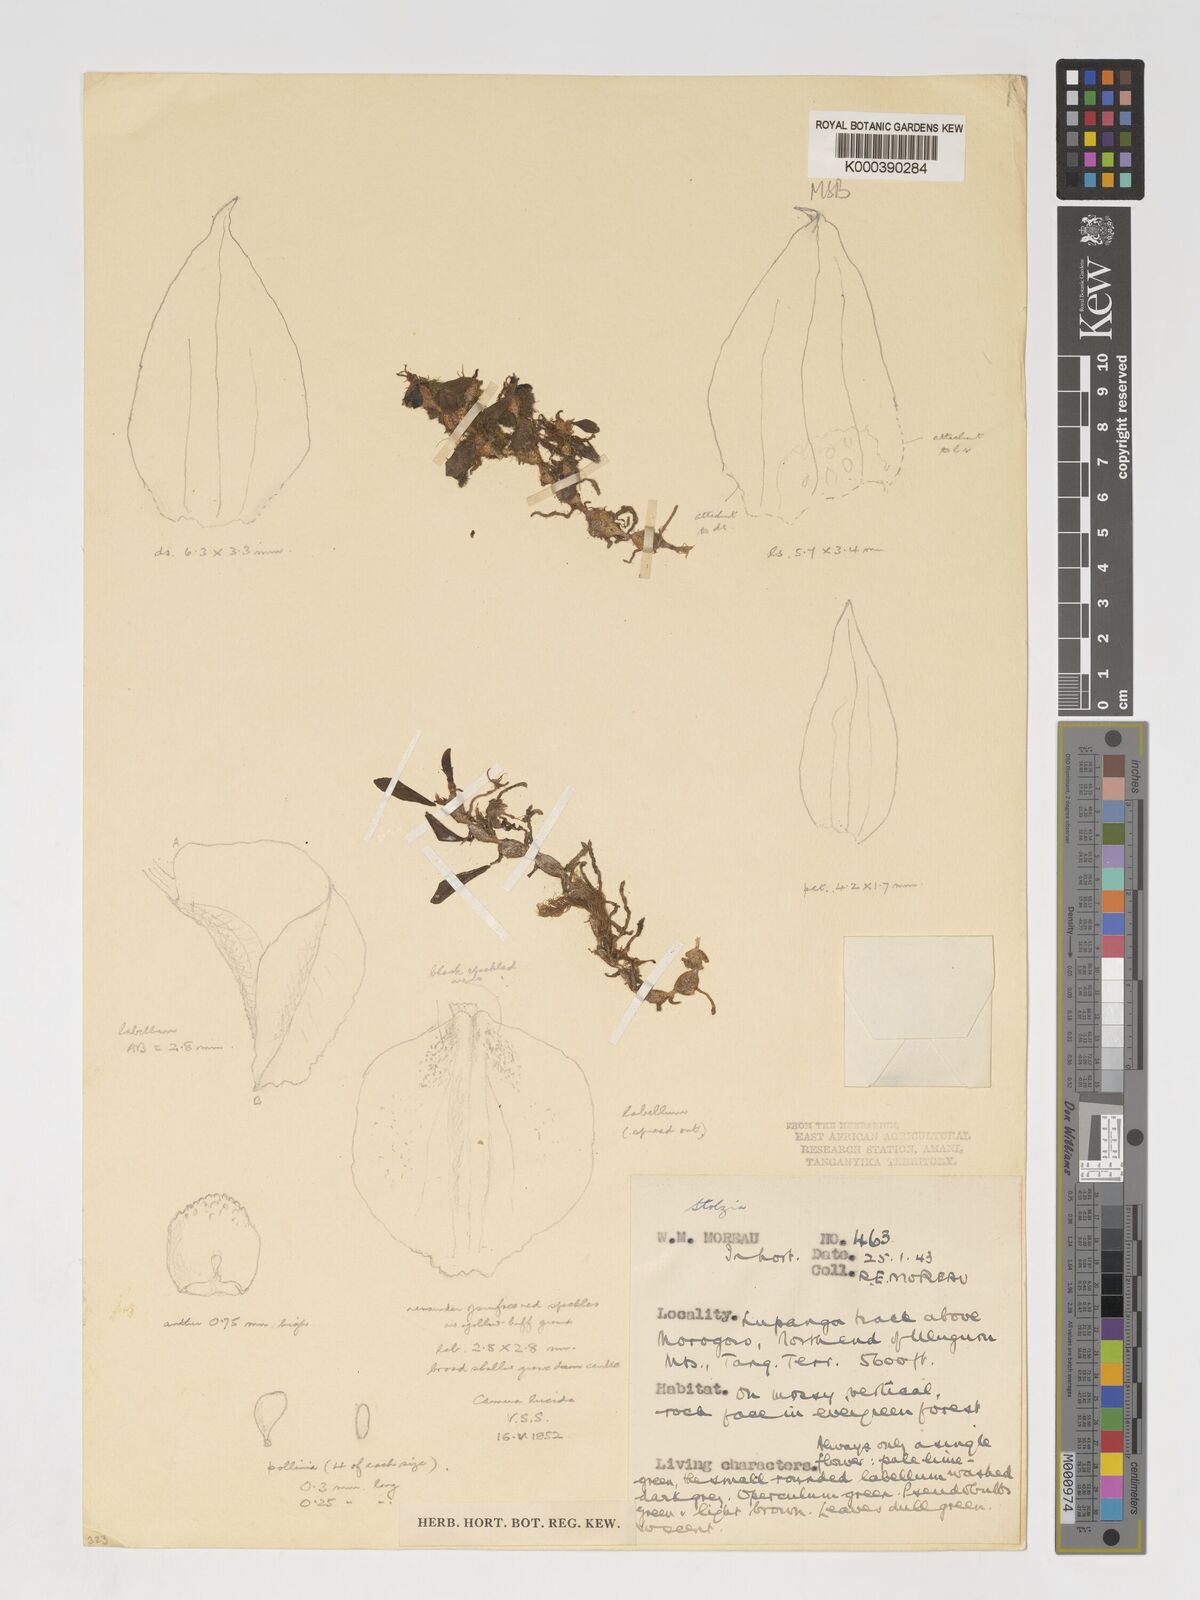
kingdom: Plantae
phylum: Tracheophyta
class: Liliopsida
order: Asparagales
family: Orchidaceae
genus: Porpax
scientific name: Porpax moniliformis
